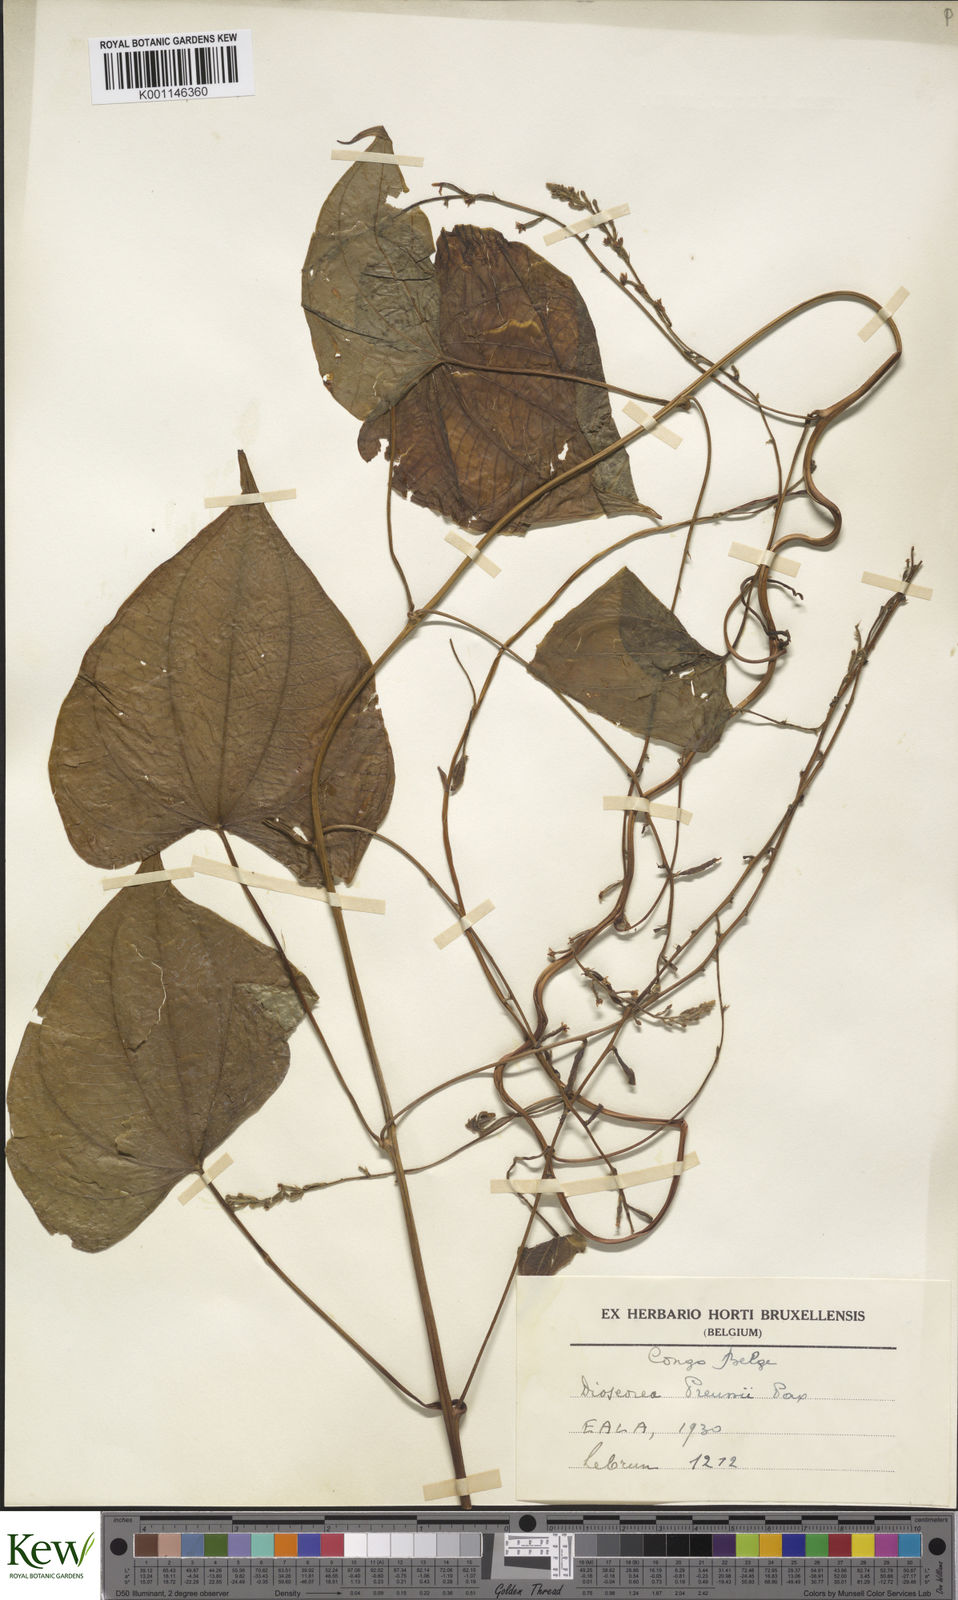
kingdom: Plantae
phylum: Tracheophyta
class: Liliopsida
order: Dioscoreales
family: Dioscoreaceae
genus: Dioscorea
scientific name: Dioscorea preussii
